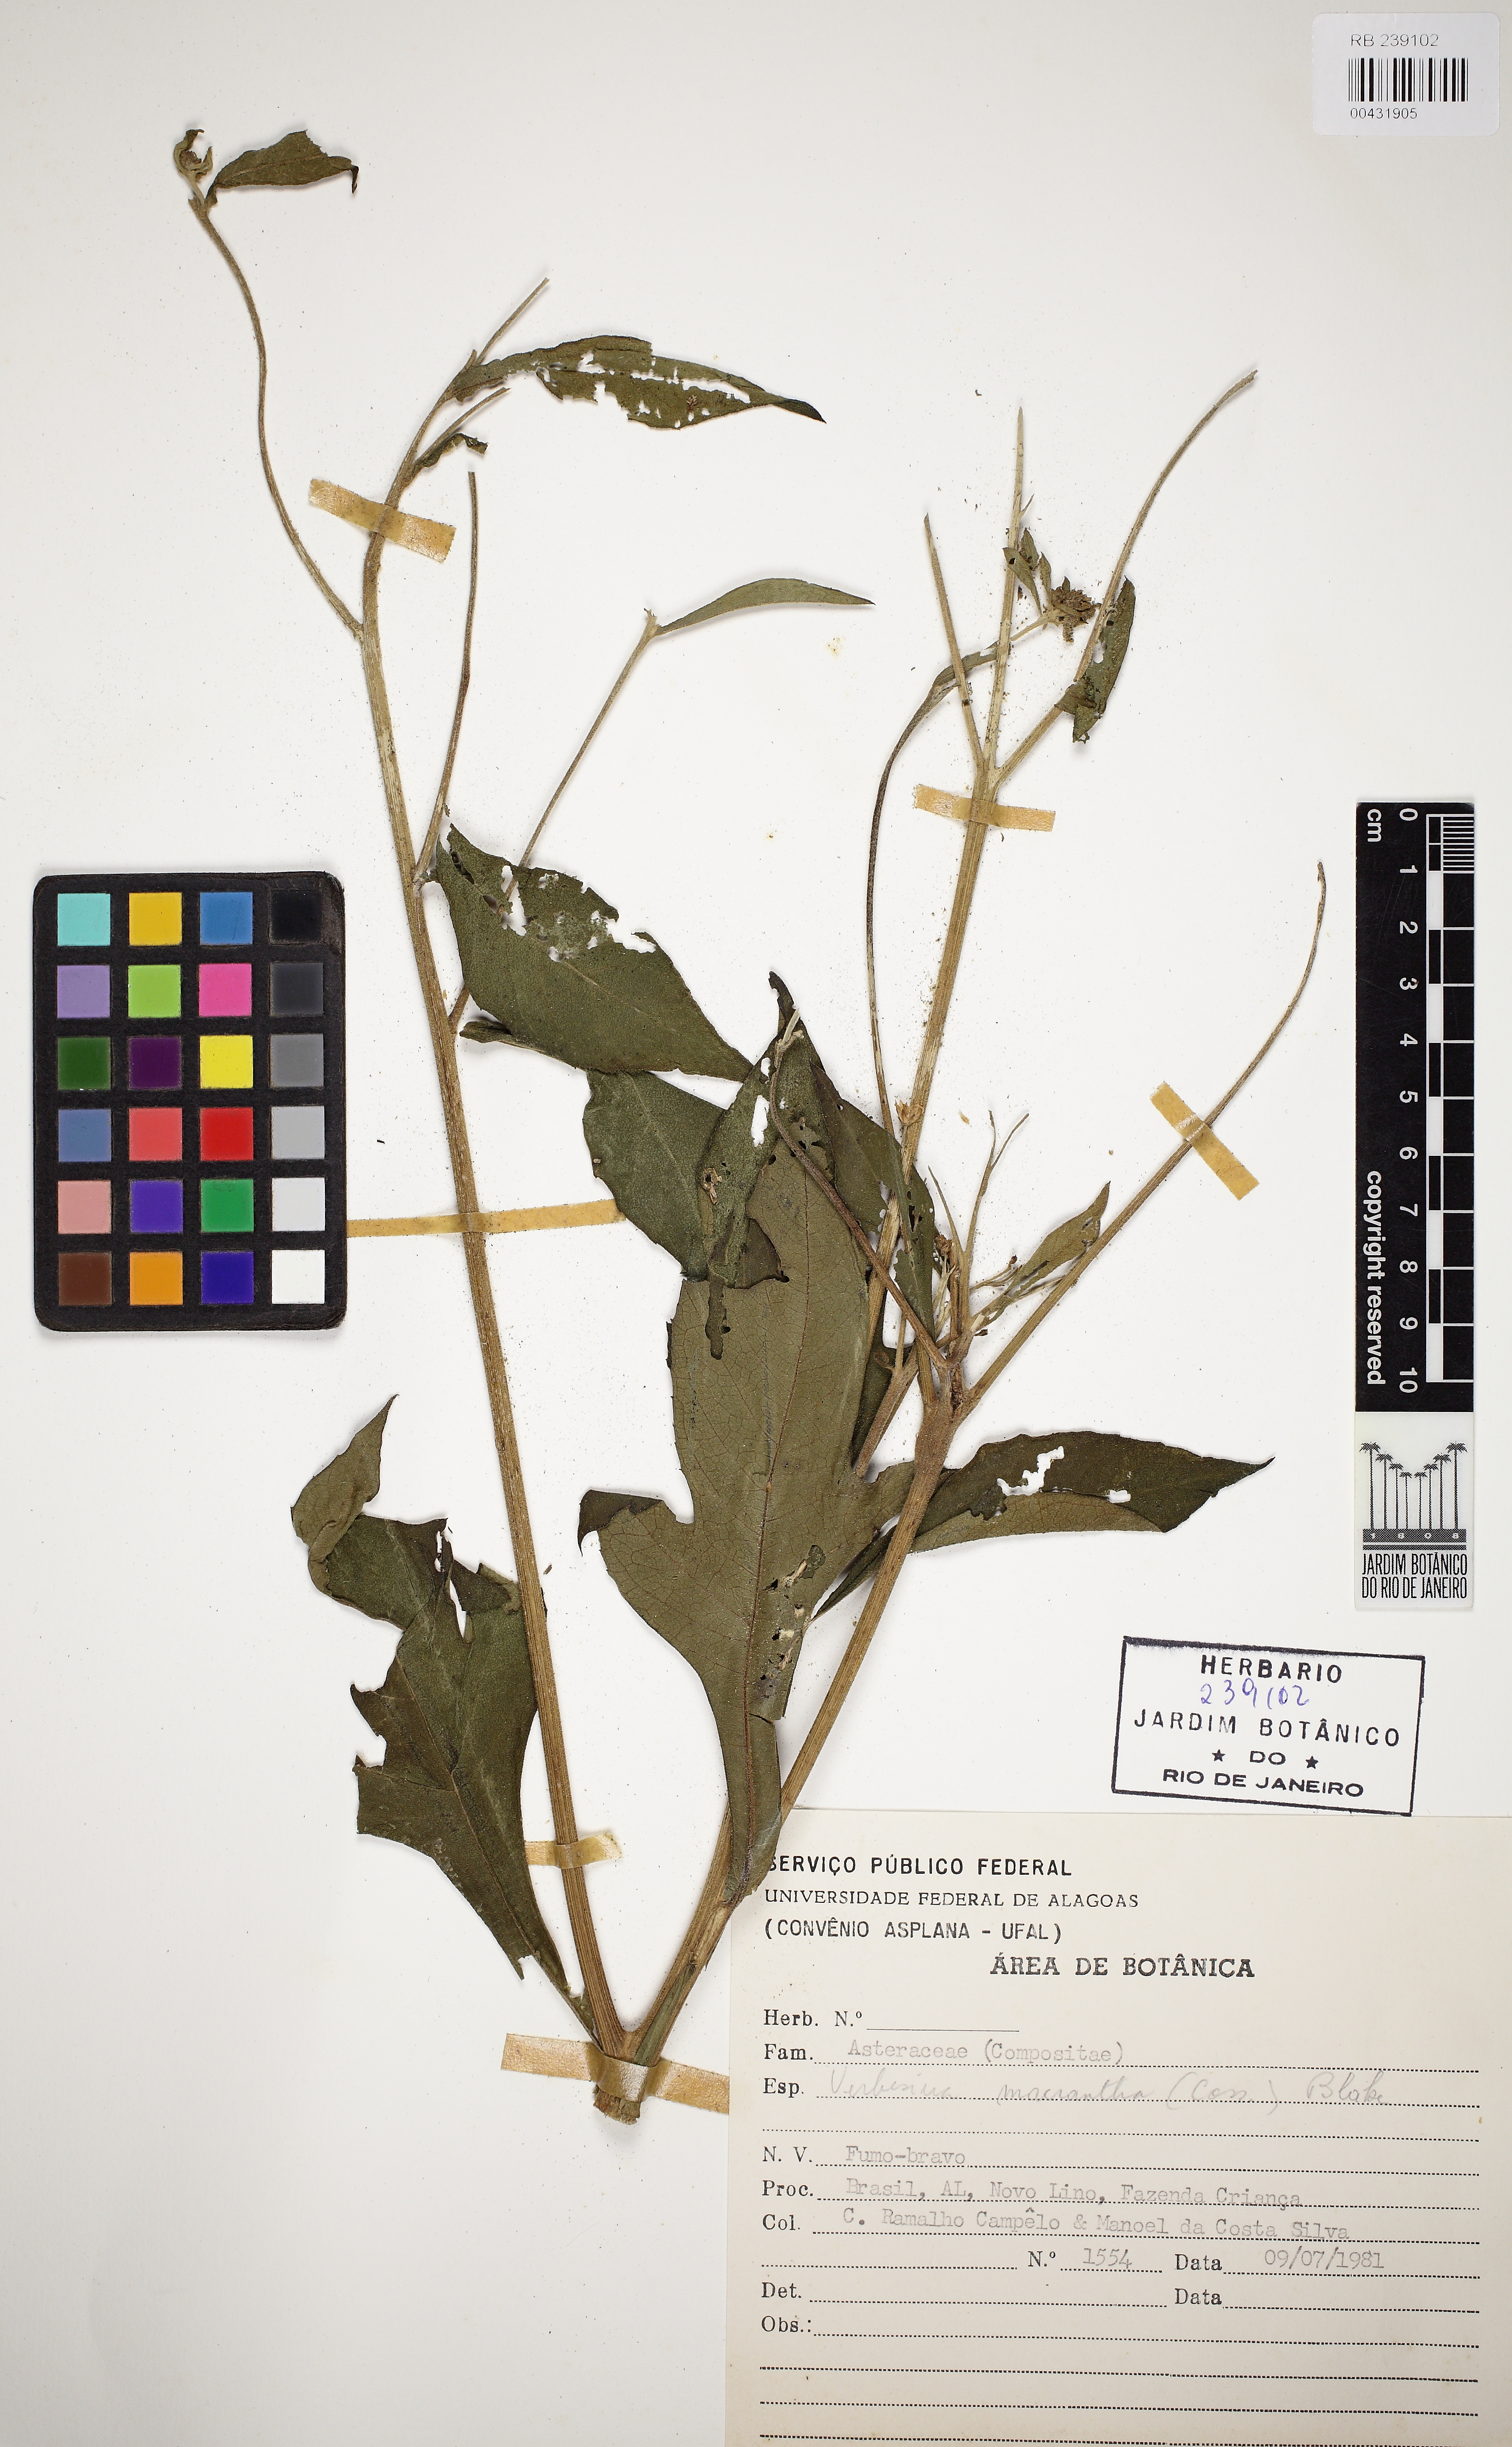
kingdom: Plantae
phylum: Tracheophyta
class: Magnoliopsida
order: Asterales
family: Asteraceae
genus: Verbesina
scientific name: Verbesina macrophylla
